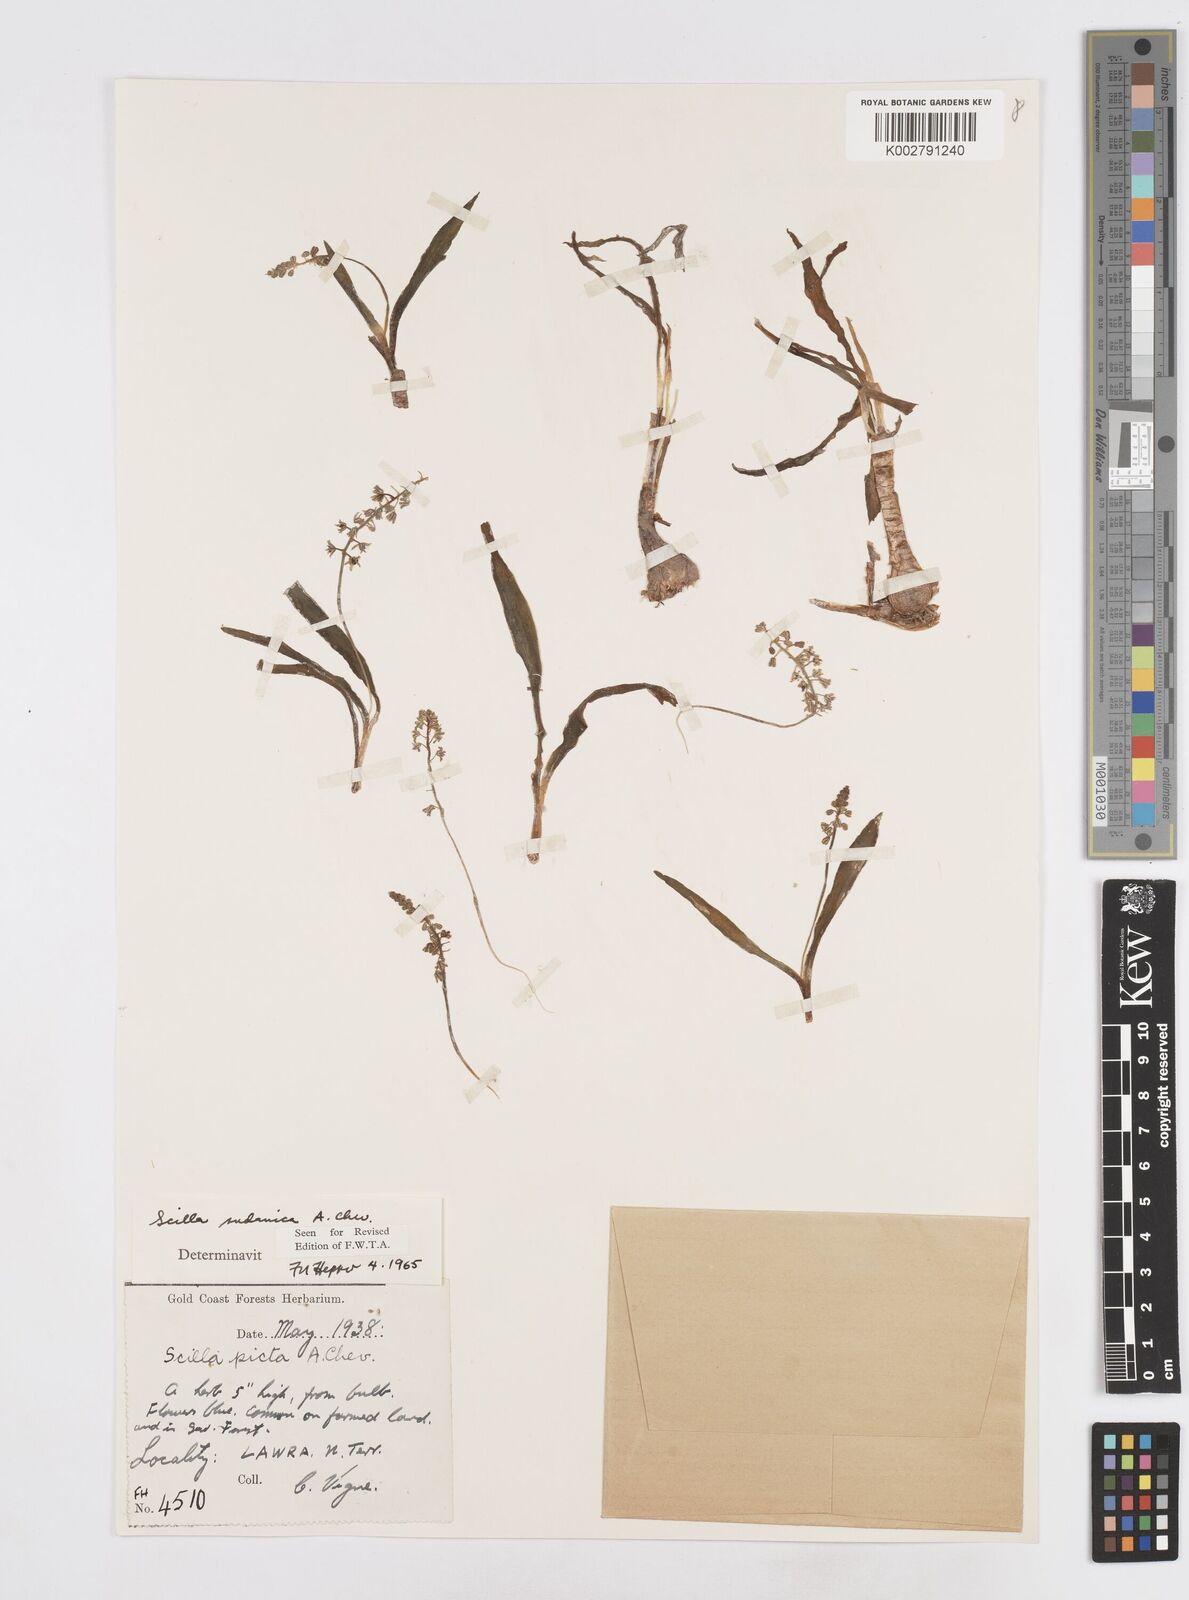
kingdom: Plantae
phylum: Tracheophyta
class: Liliopsida
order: Asparagales
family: Asparagaceae
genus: Ledebouria
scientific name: Ledebouria sudanica
